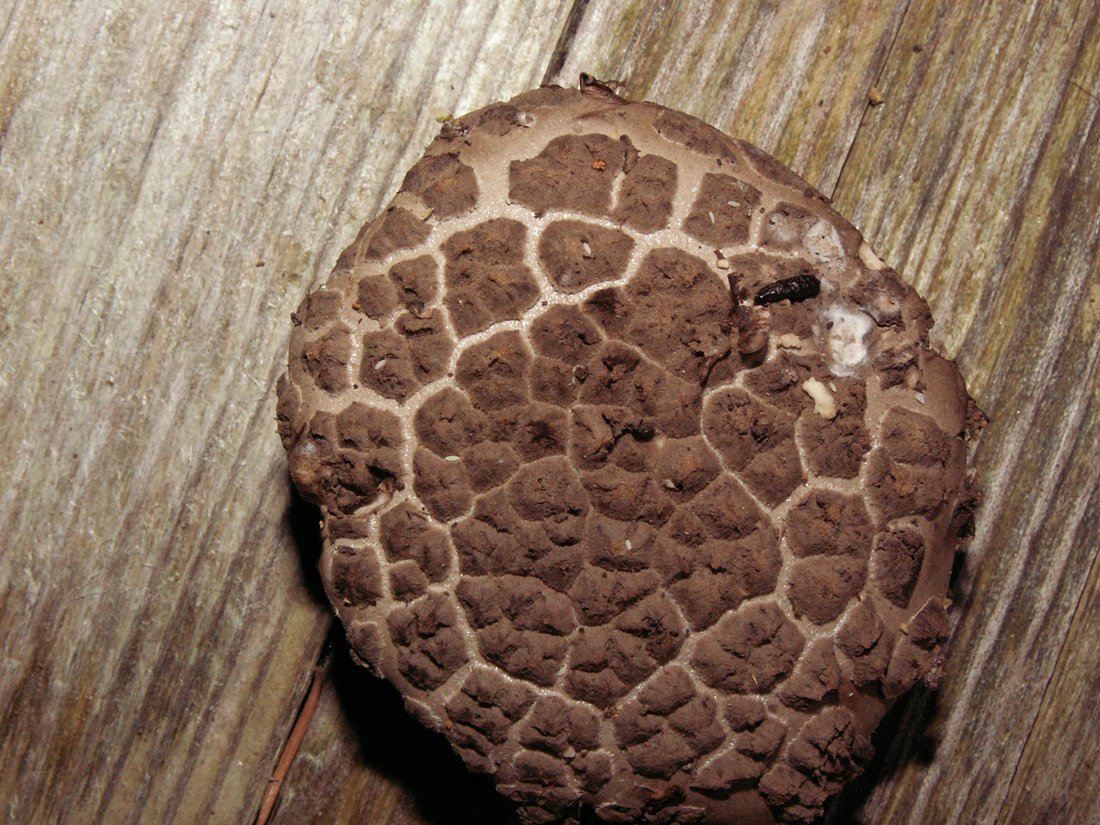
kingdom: Fungi
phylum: Basidiomycota
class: Agaricomycetes
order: Agaricales
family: Amanitaceae
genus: Amanita
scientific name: Amanita ceciliae
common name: stor kam-fluesvamp
